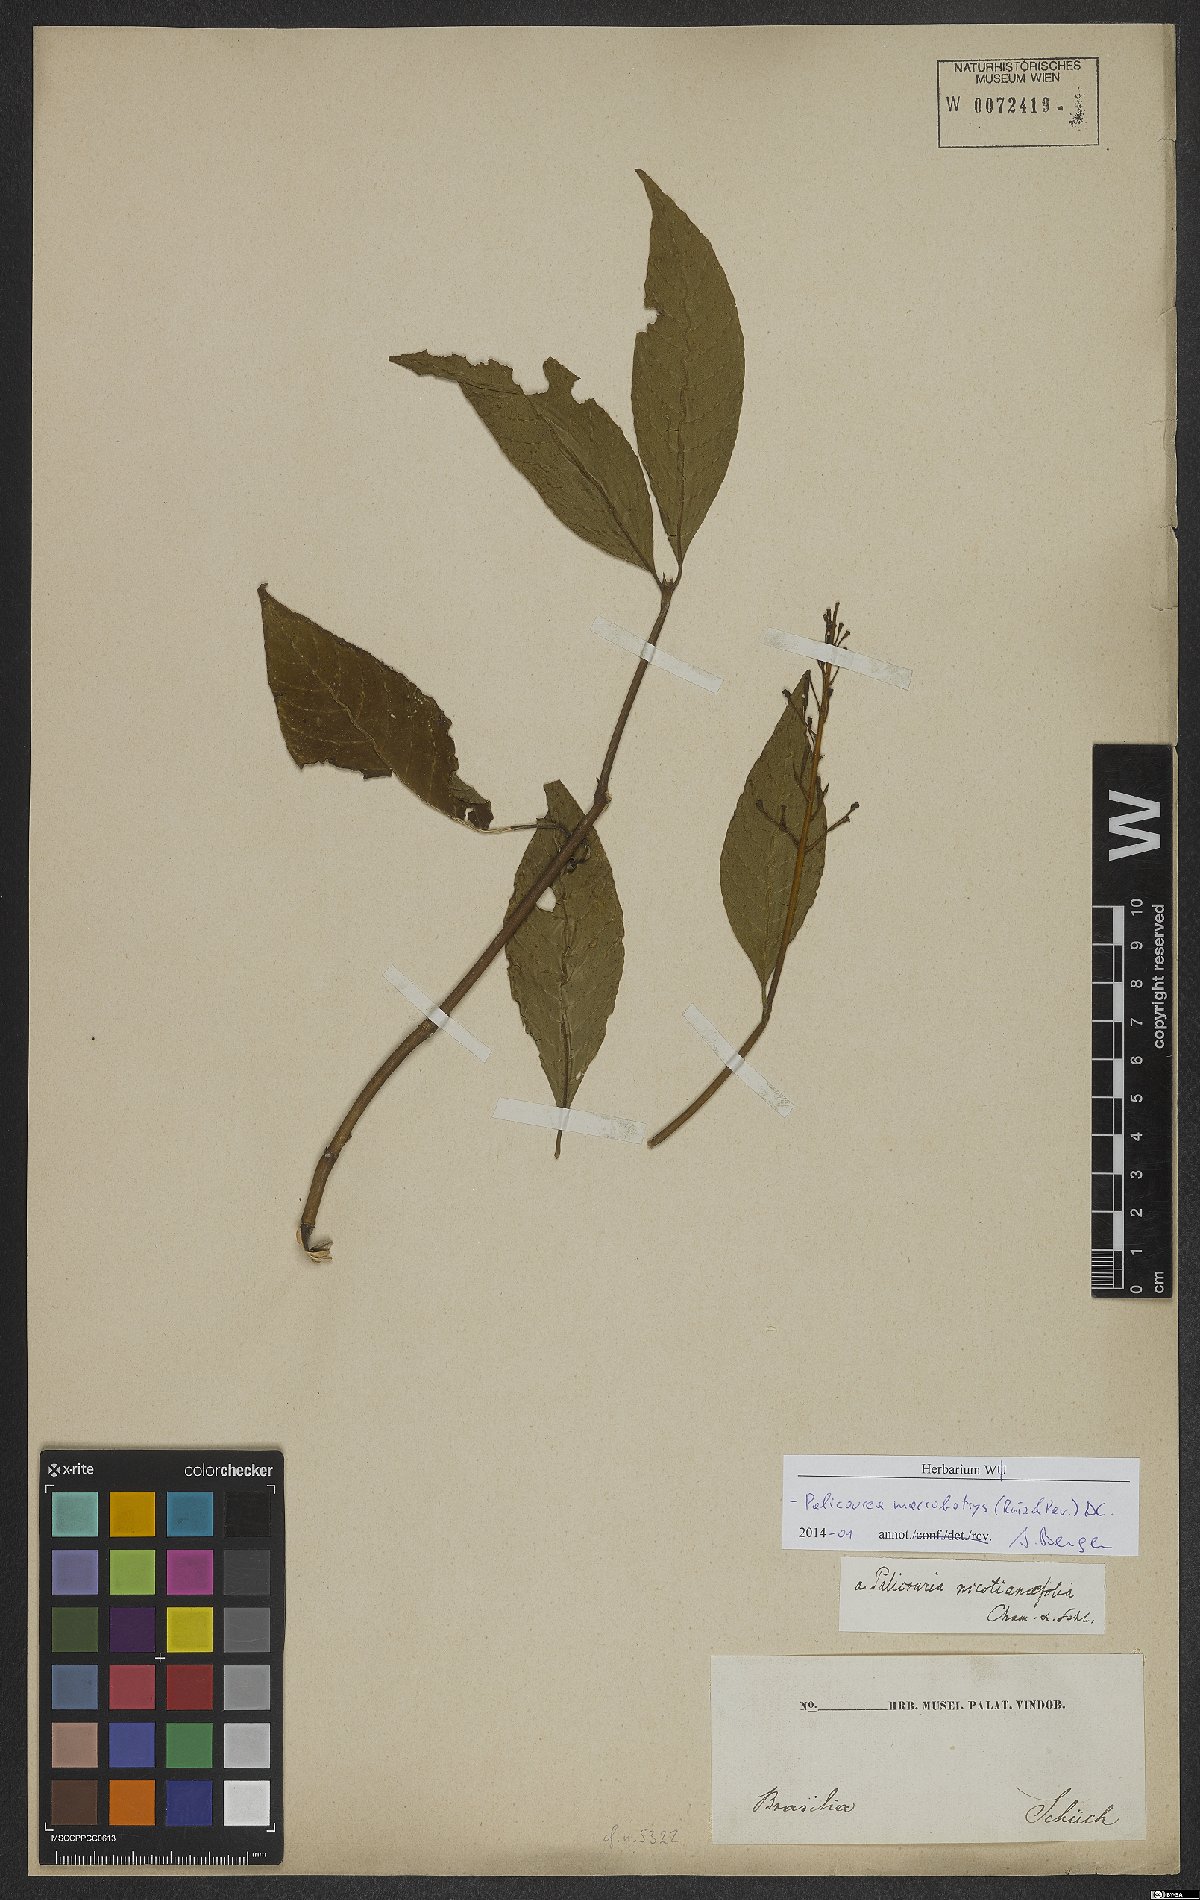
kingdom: Plantae
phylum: Tracheophyta
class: Magnoliopsida
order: Gentianales
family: Rubiaceae
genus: Palicourea
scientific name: Palicourea macrobotrys
